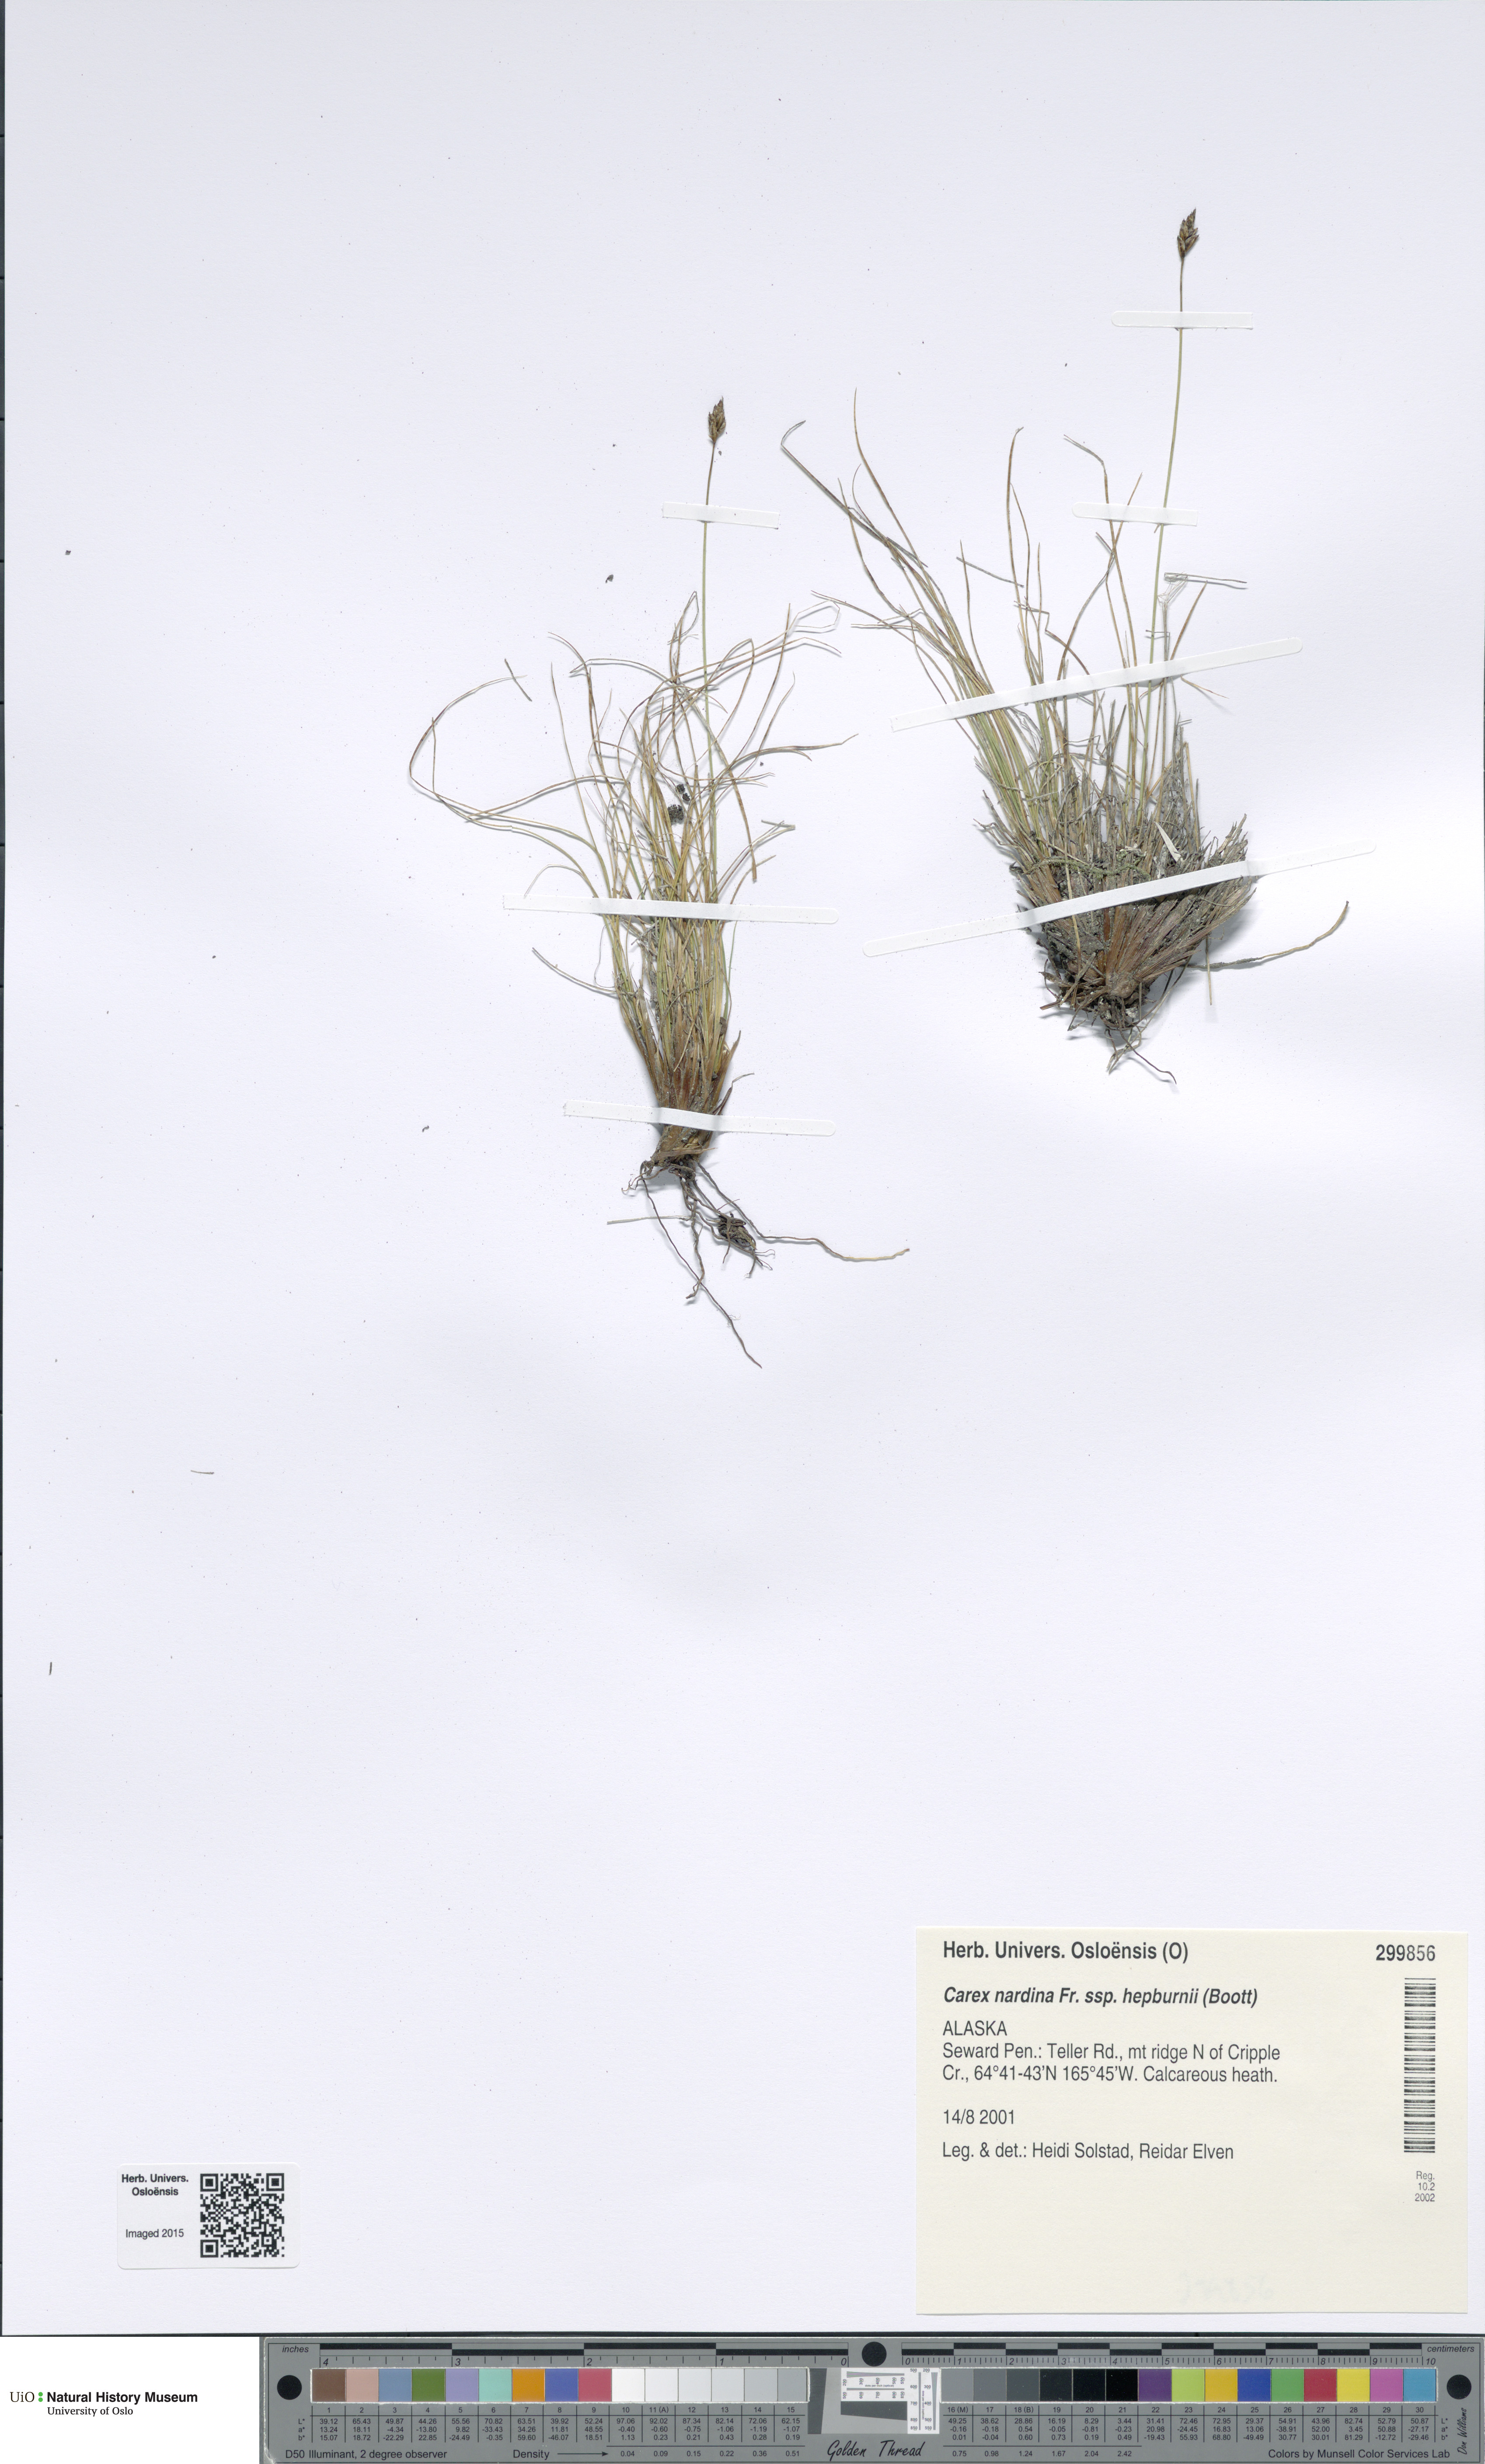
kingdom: Plantae
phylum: Tracheophyta
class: Liliopsida
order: Poales
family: Cyperaceae
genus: Carex
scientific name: Carex nardina
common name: Nard sedge
